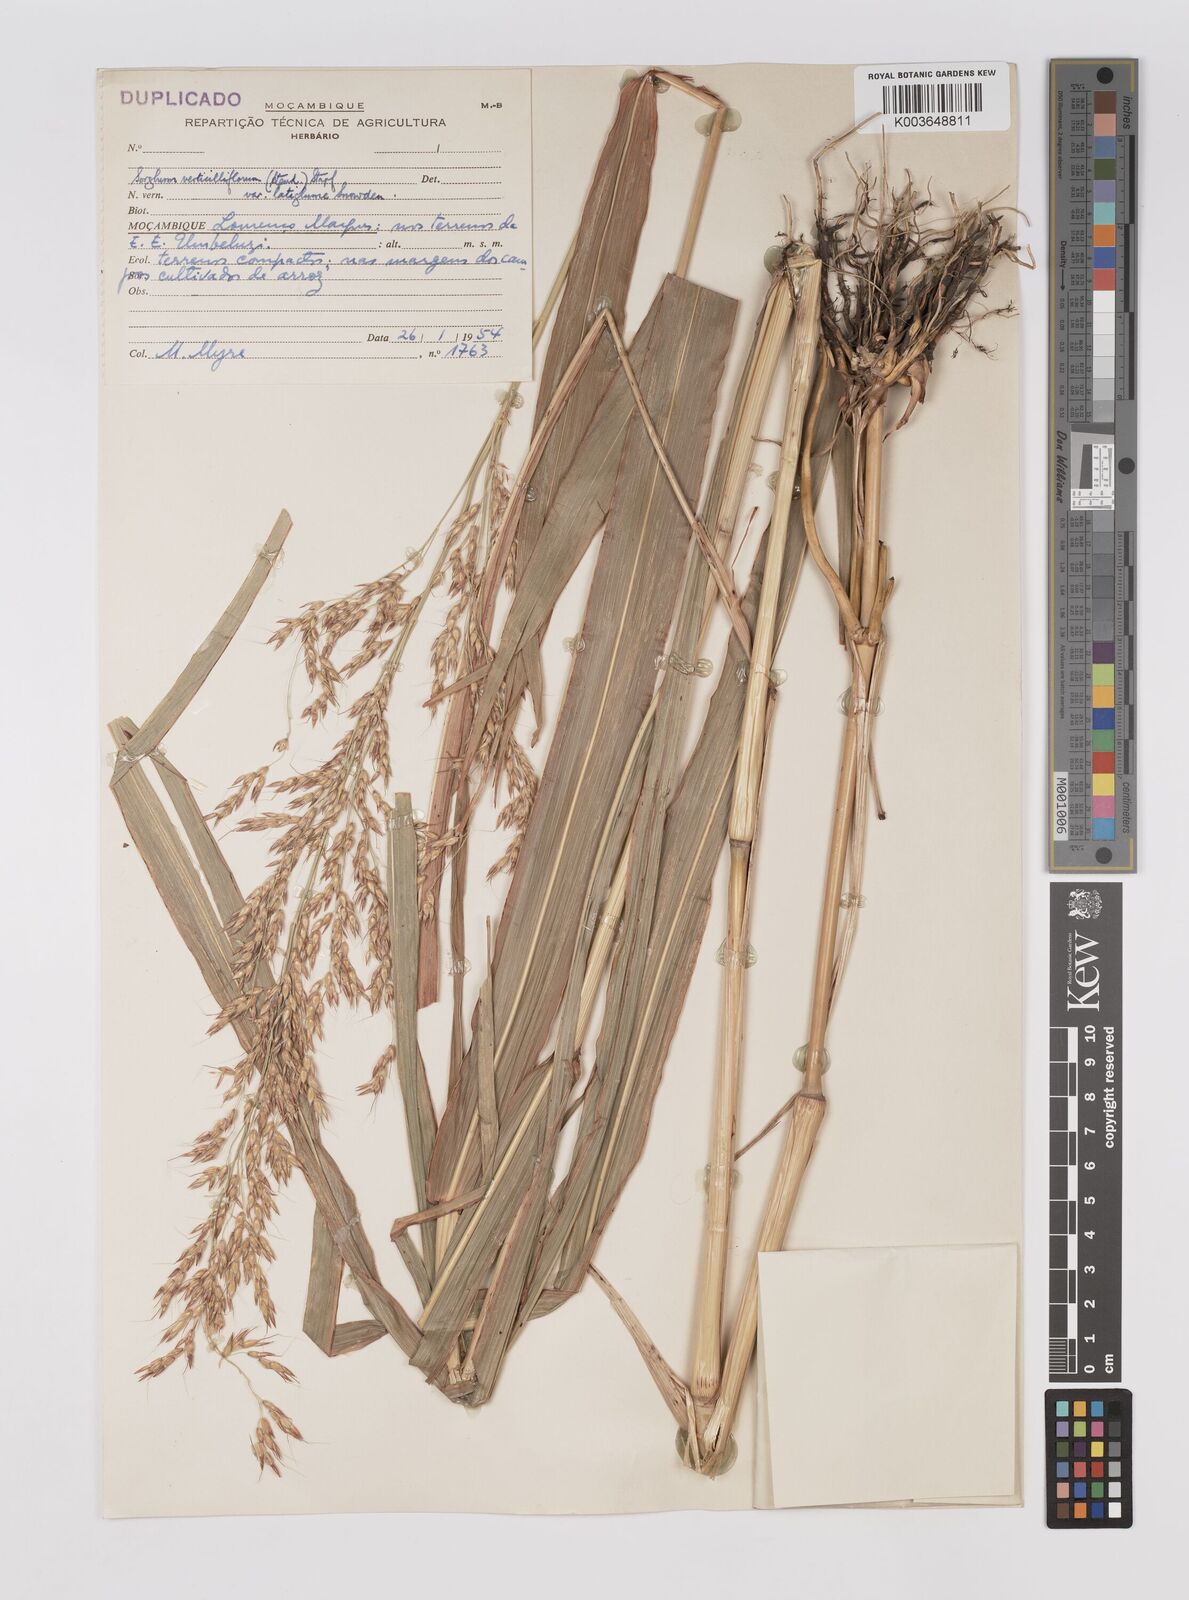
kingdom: Plantae
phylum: Tracheophyta
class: Liliopsida
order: Poales
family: Poaceae
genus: Sorghum
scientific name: Sorghum arundinaceum
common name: Sorghum
